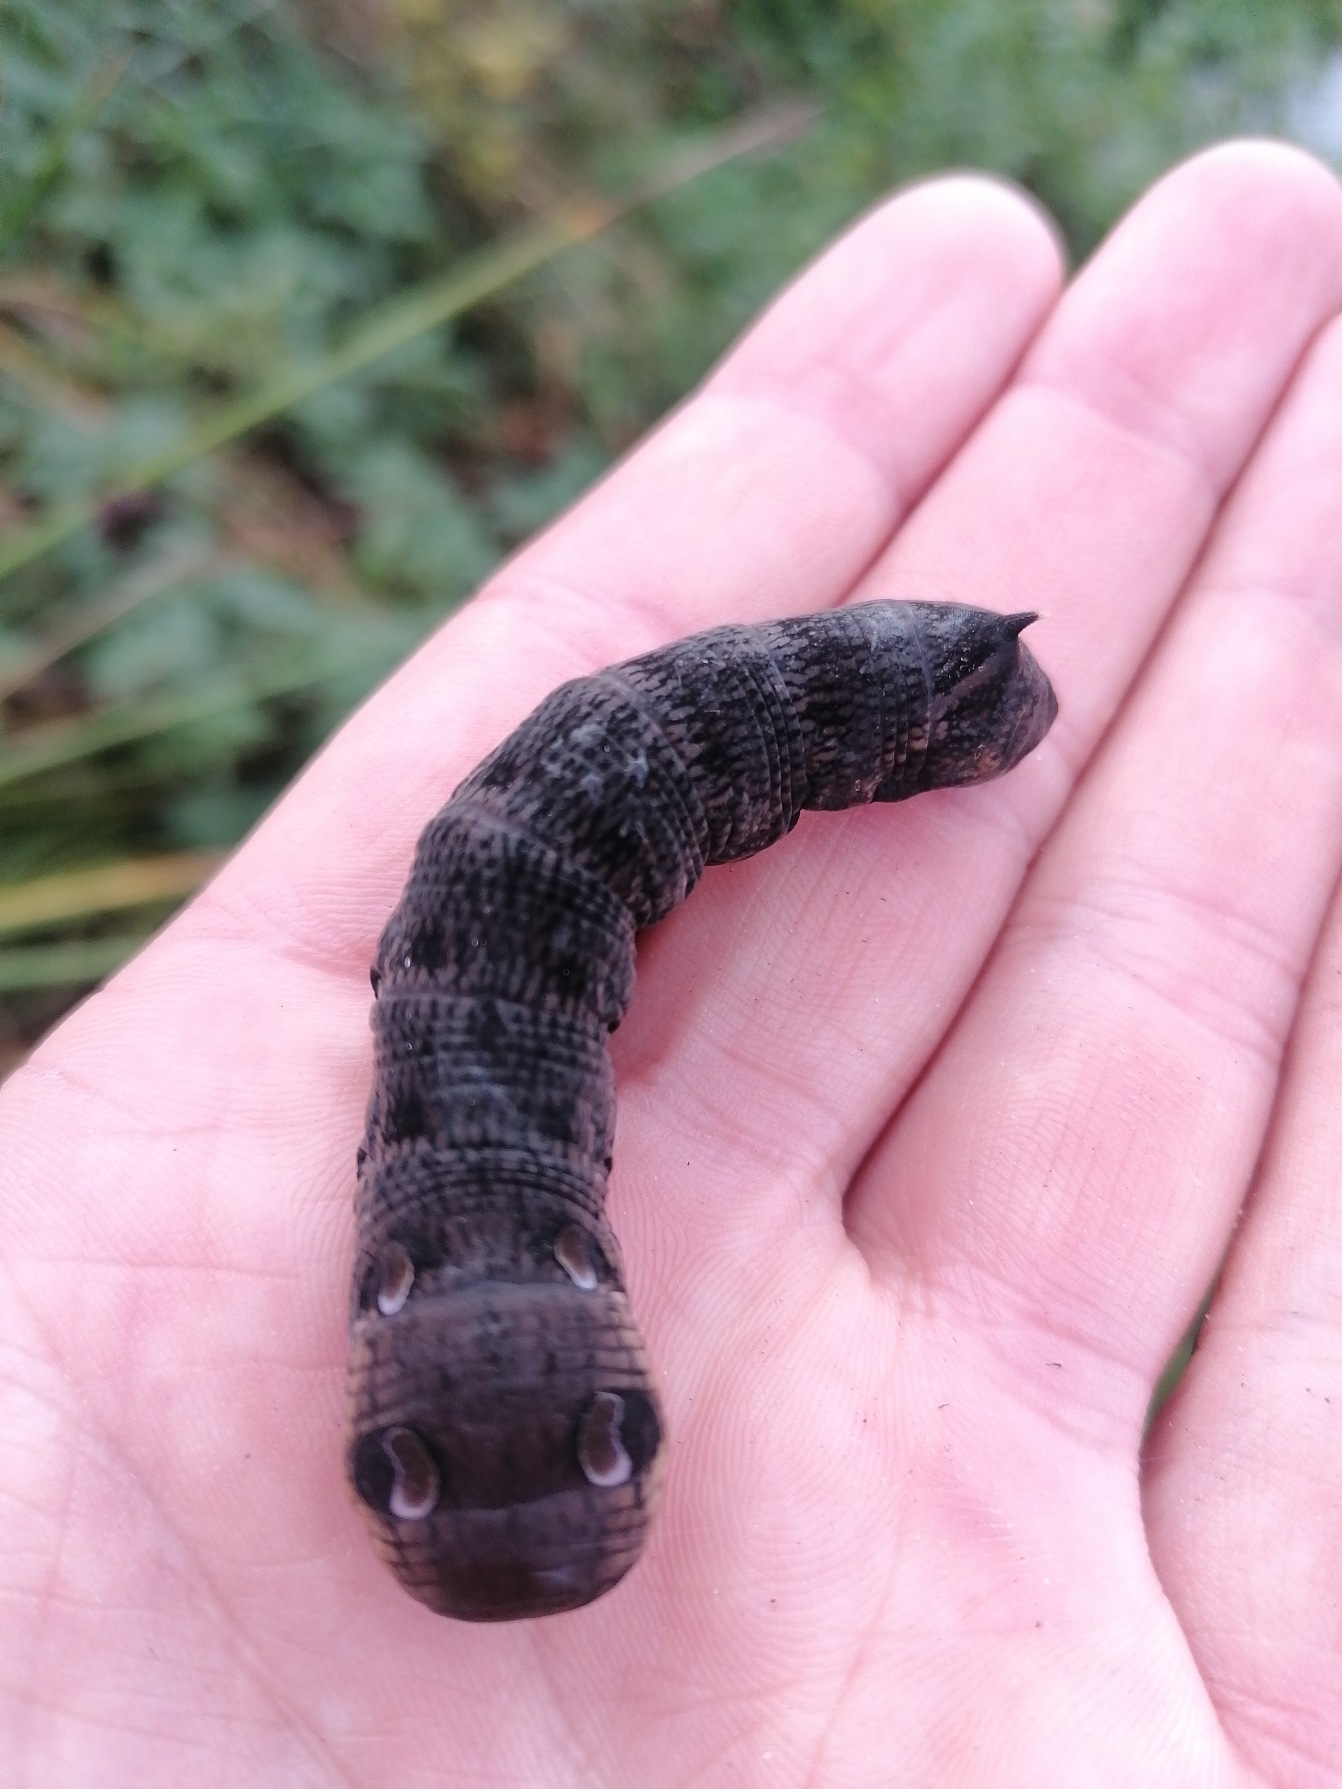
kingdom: Animalia
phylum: Arthropoda
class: Insecta
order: Lepidoptera
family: Sphingidae
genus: Deilephila
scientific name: Deilephila elpenor
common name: Dueurtsværmer
